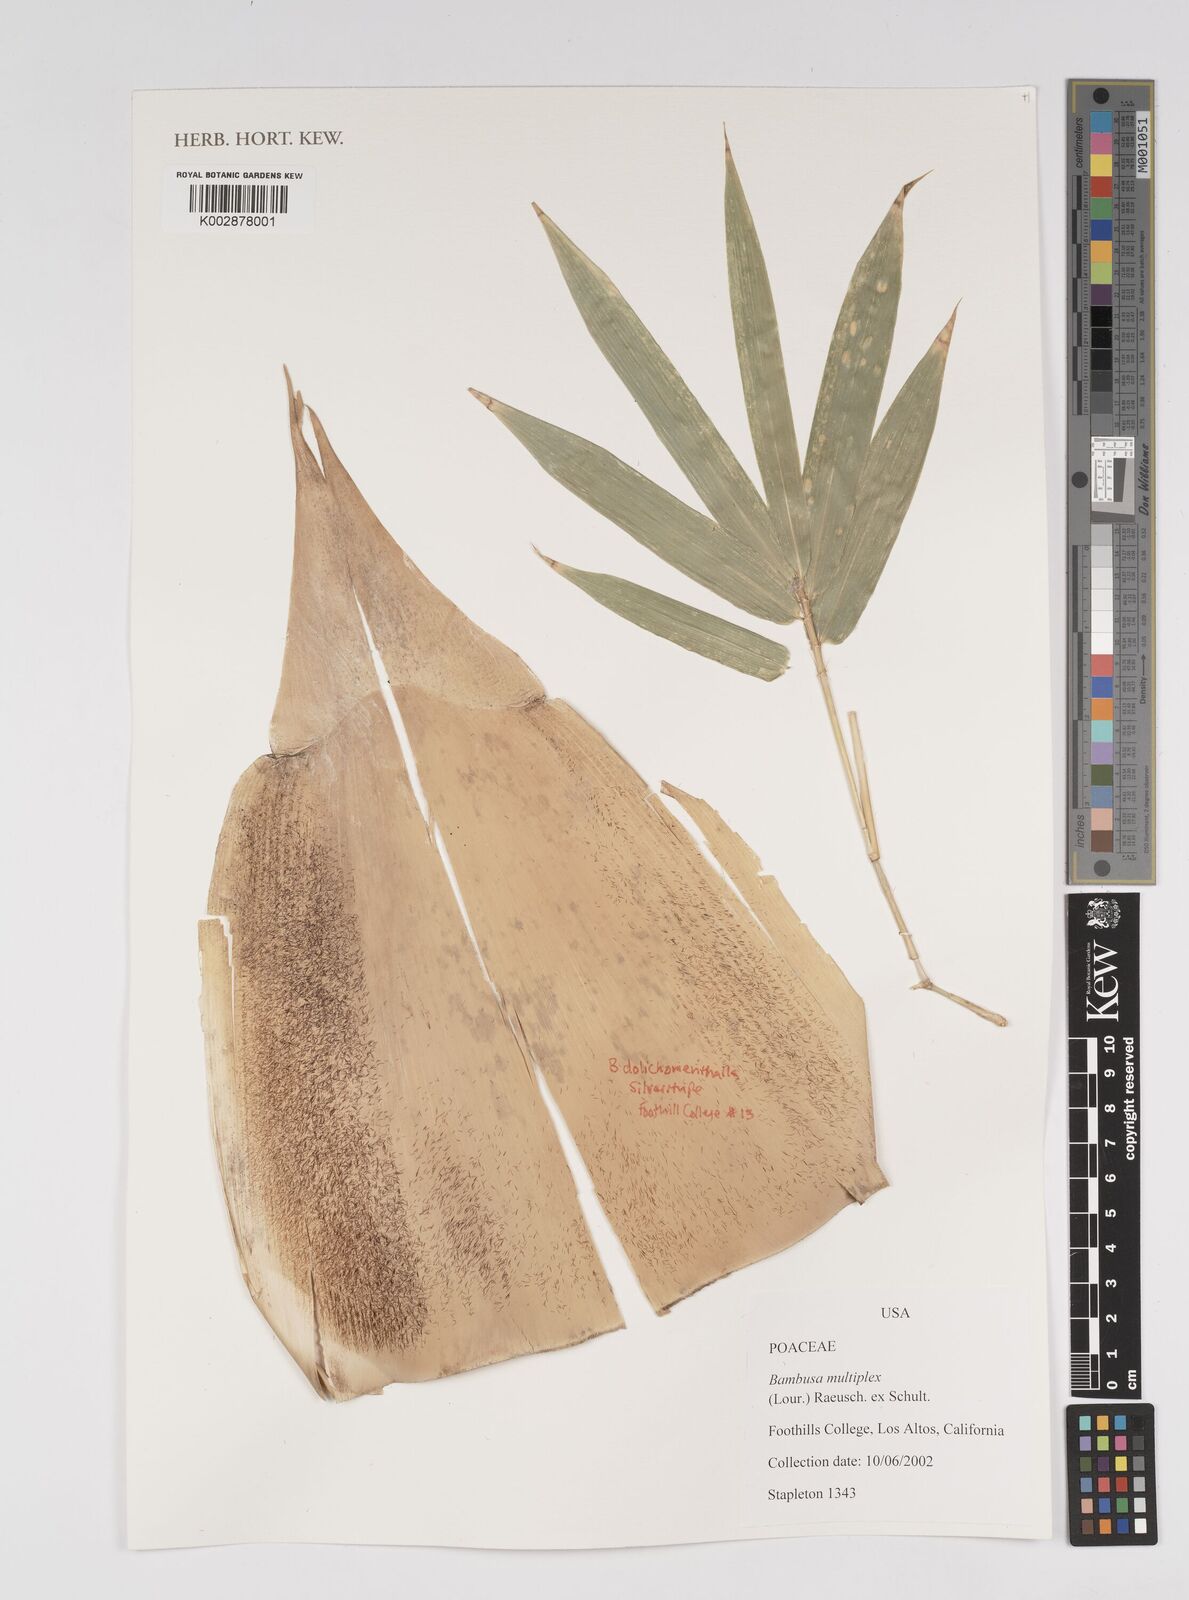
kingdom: Plantae
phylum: Tracheophyta
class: Liliopsida
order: Poales
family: Poaceae
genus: Bambusa
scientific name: Bambusa multiplex
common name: Hedge bamboo
